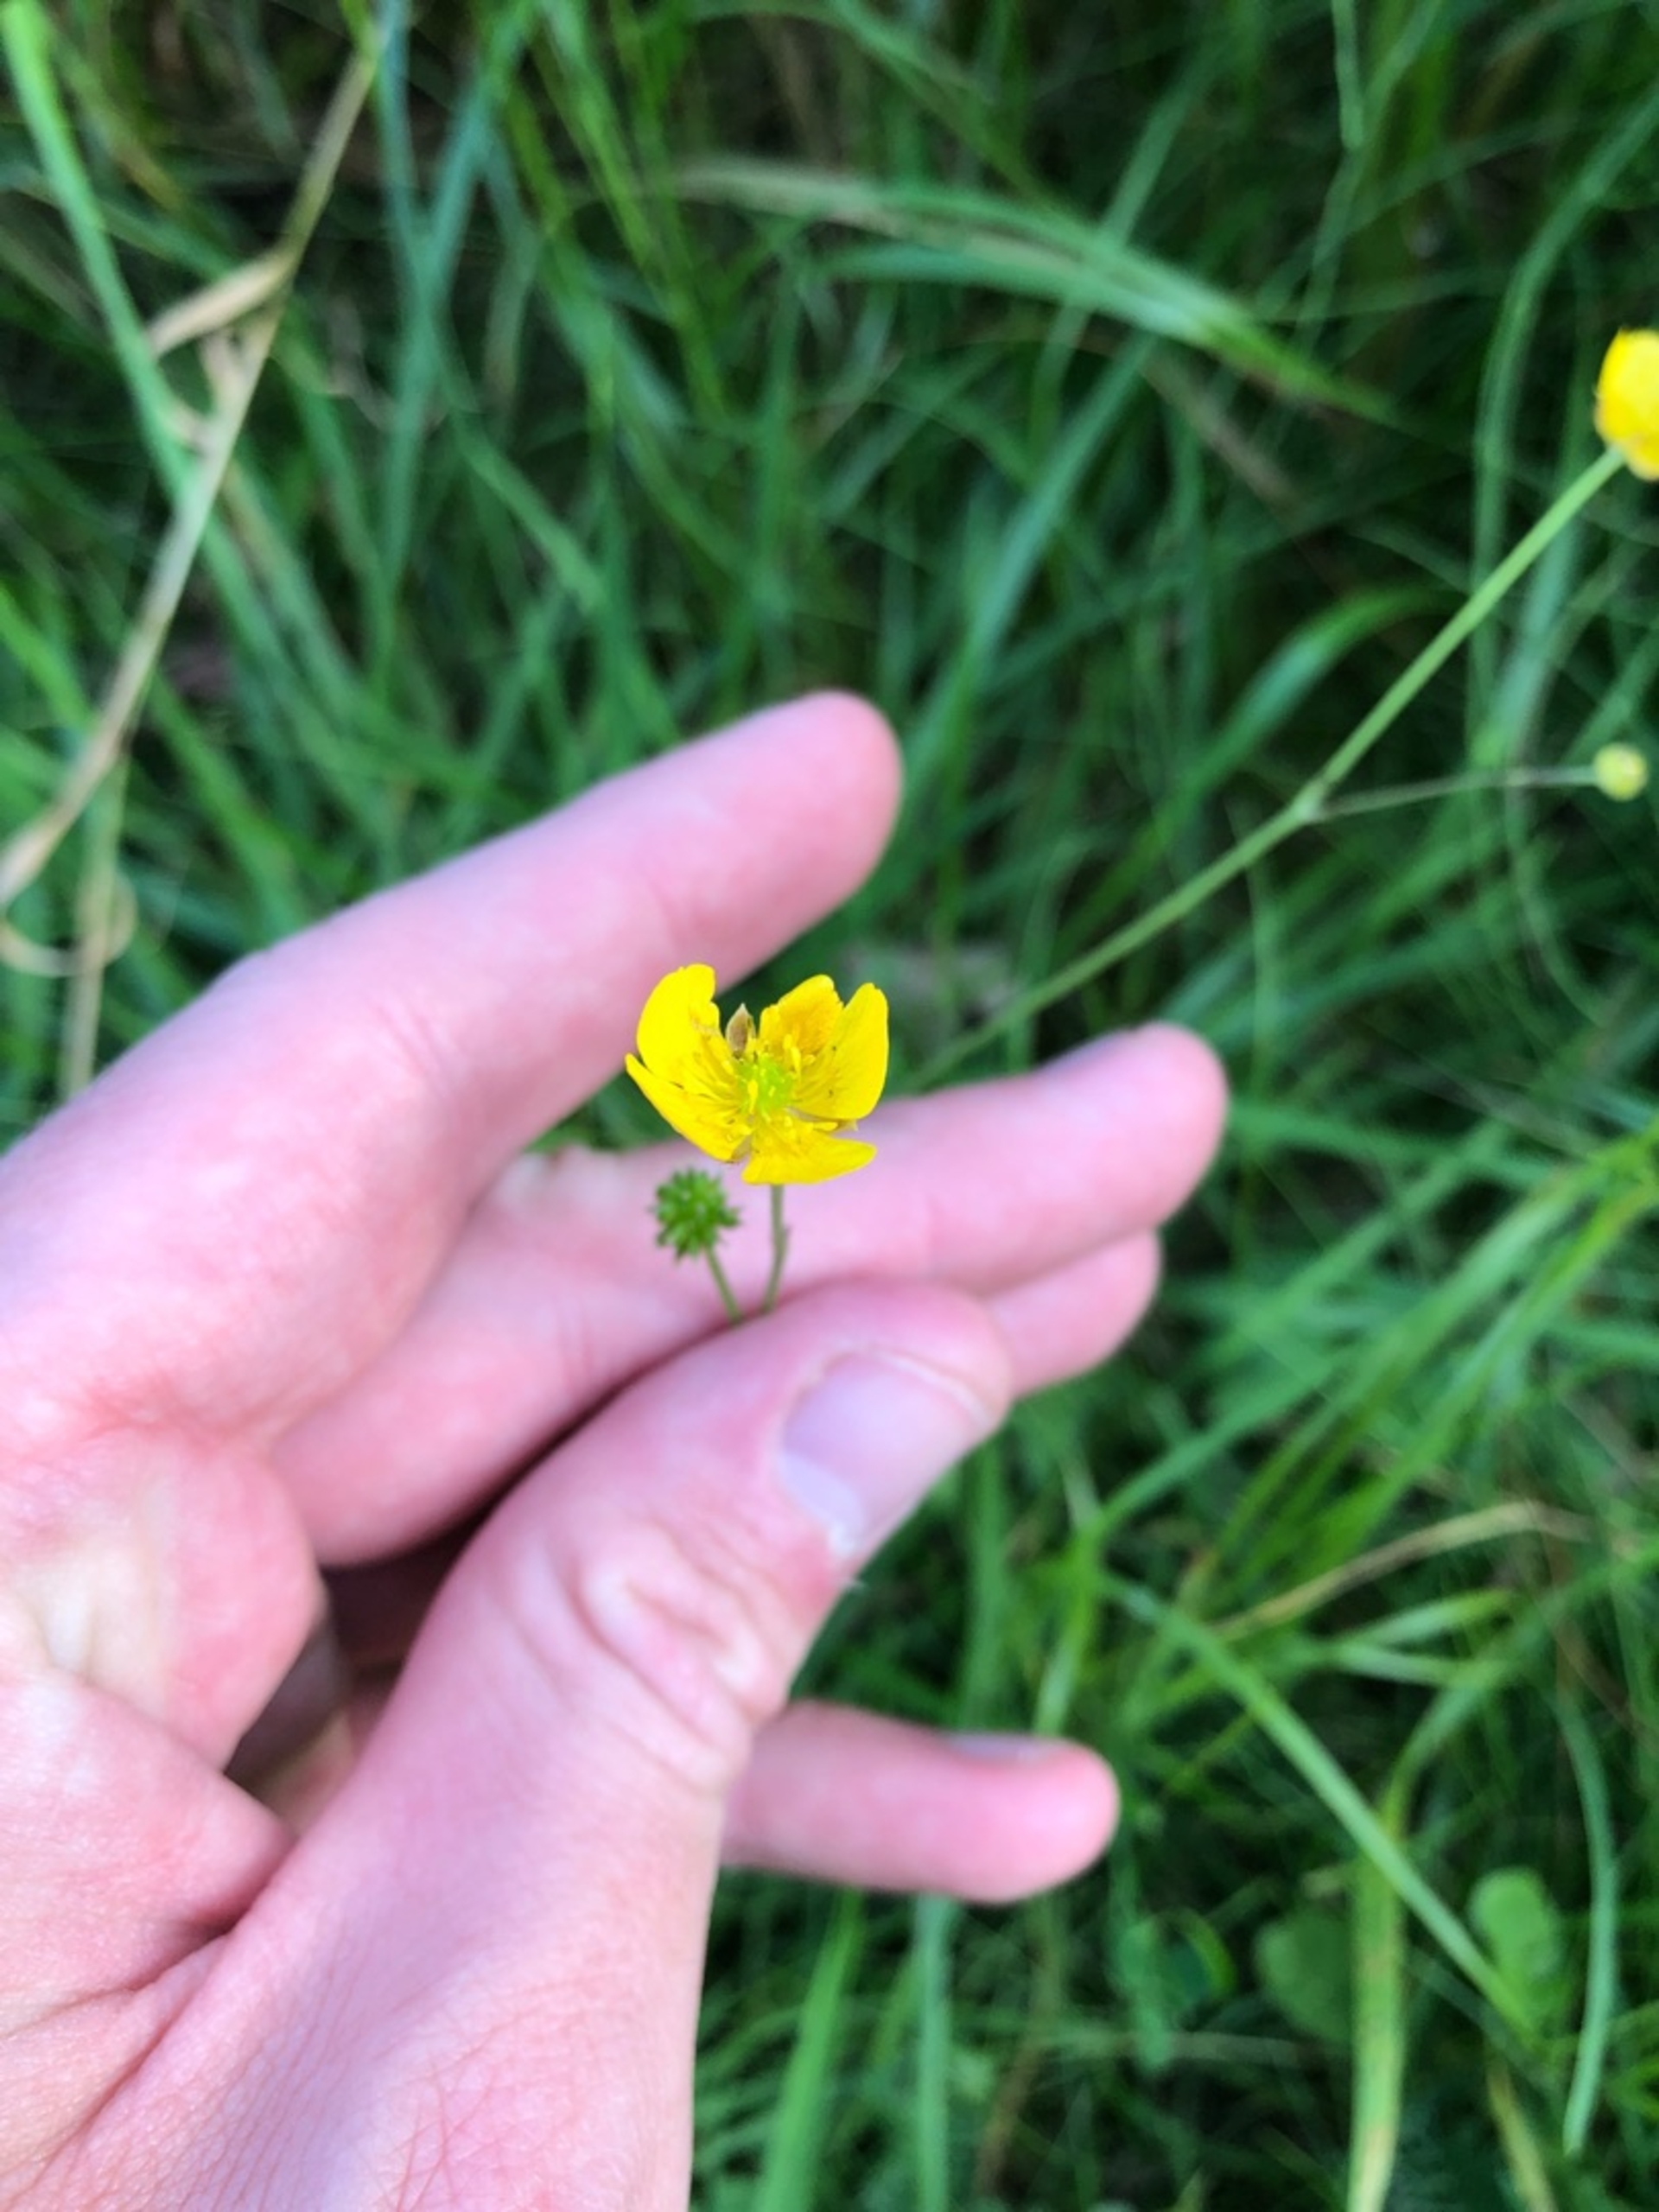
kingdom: Plantae
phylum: Tracheophyta
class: Magnoliopsida
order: Ranunculales
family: Ranunculaceae
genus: Ranunculus
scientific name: Ranunculus acris
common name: Bidende ranunkel
